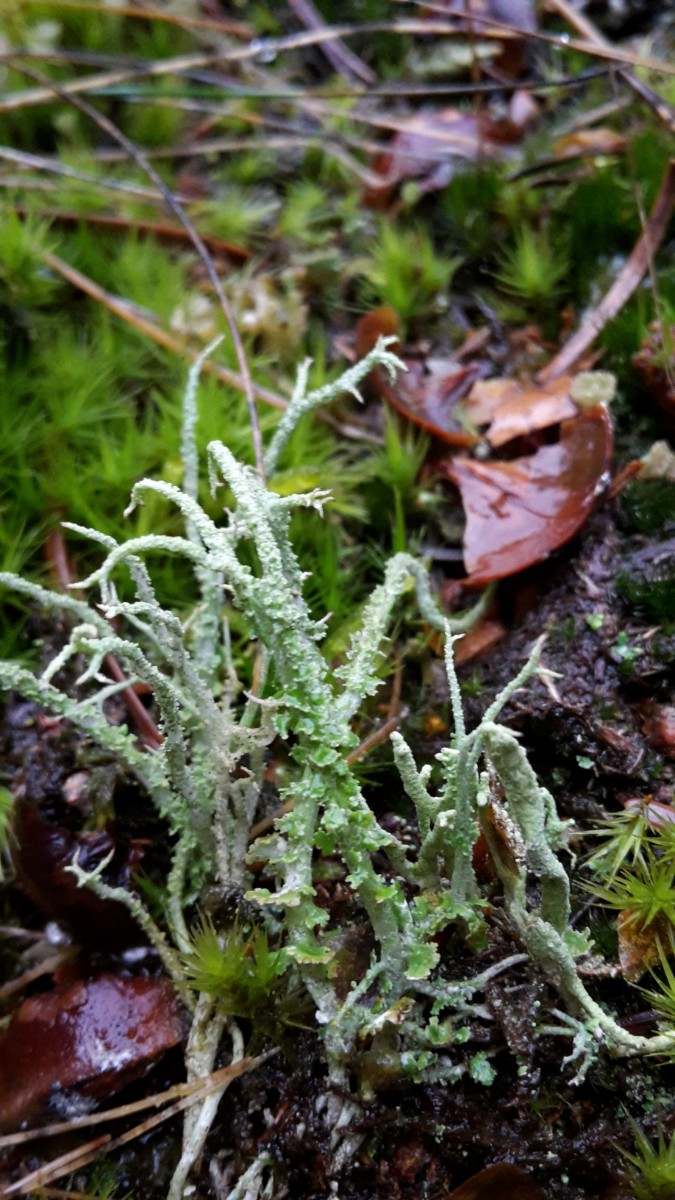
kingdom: Fungi
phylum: Ascomycota
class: Lecanoromycetes
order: Lecanorales
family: Cladoniaceae
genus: Cladonia
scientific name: Cladonia scabriuscula
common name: ru bægerlav
